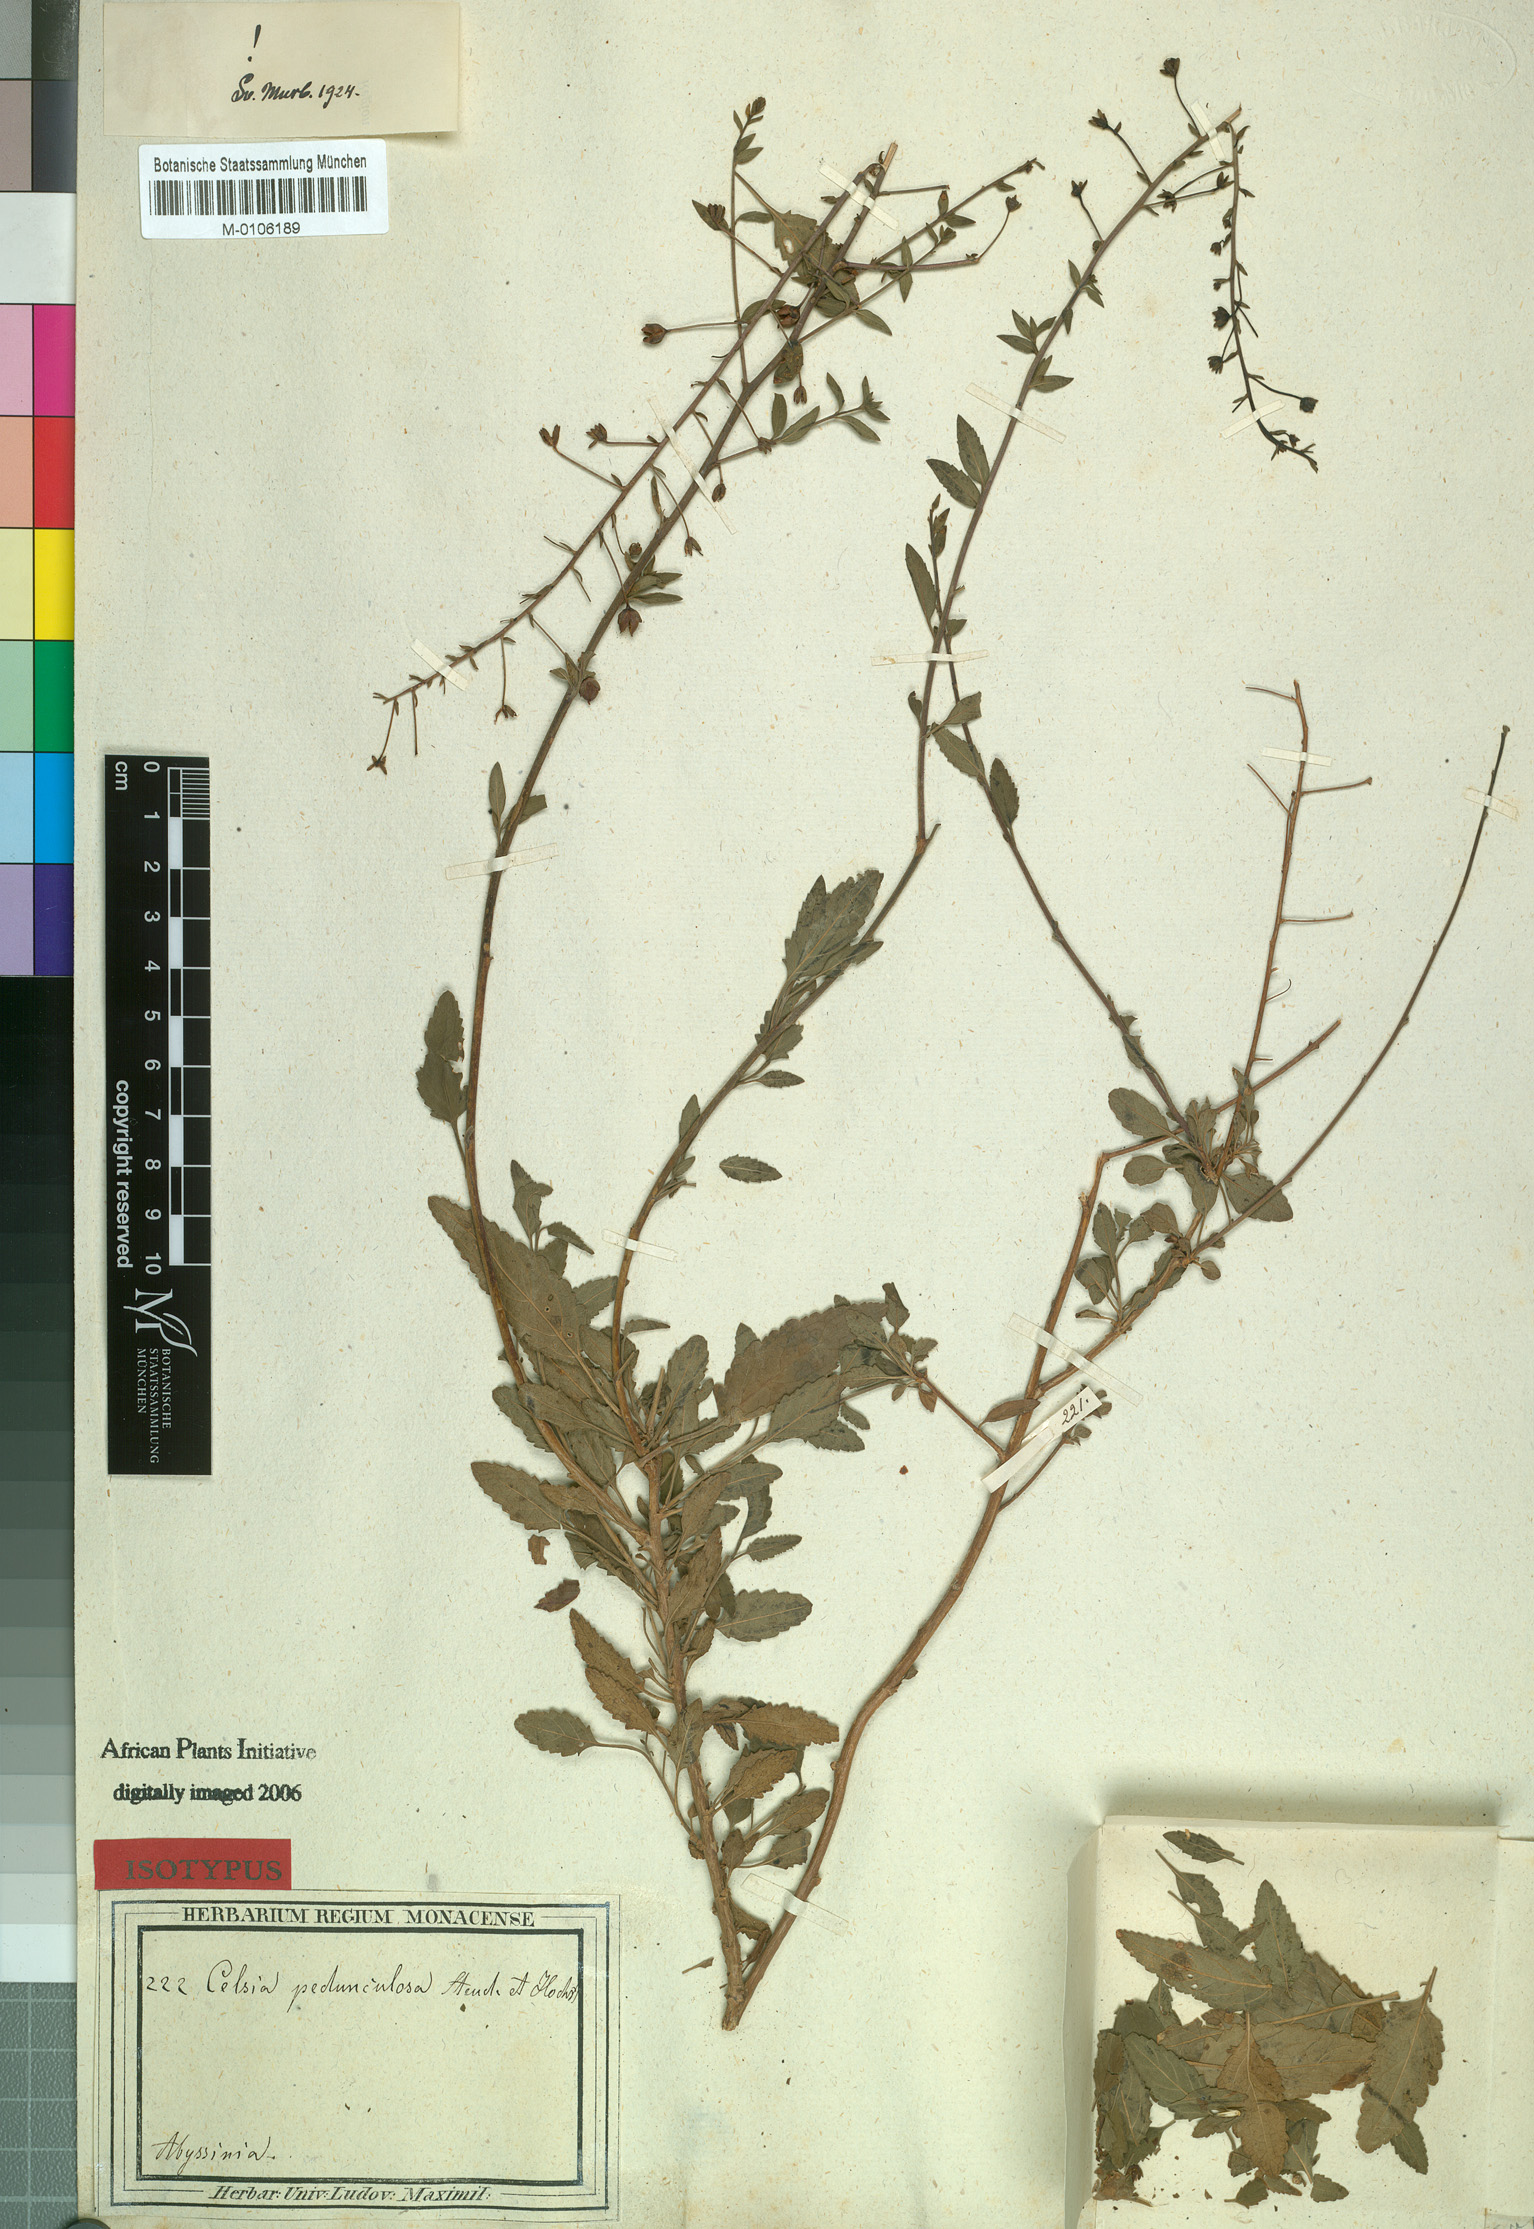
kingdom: Plantae
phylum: Tracheophyta
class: Magnoliopsida
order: Lamiales
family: Scrophulariaceae
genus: Verbascum
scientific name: Verbascum pedunculosum
